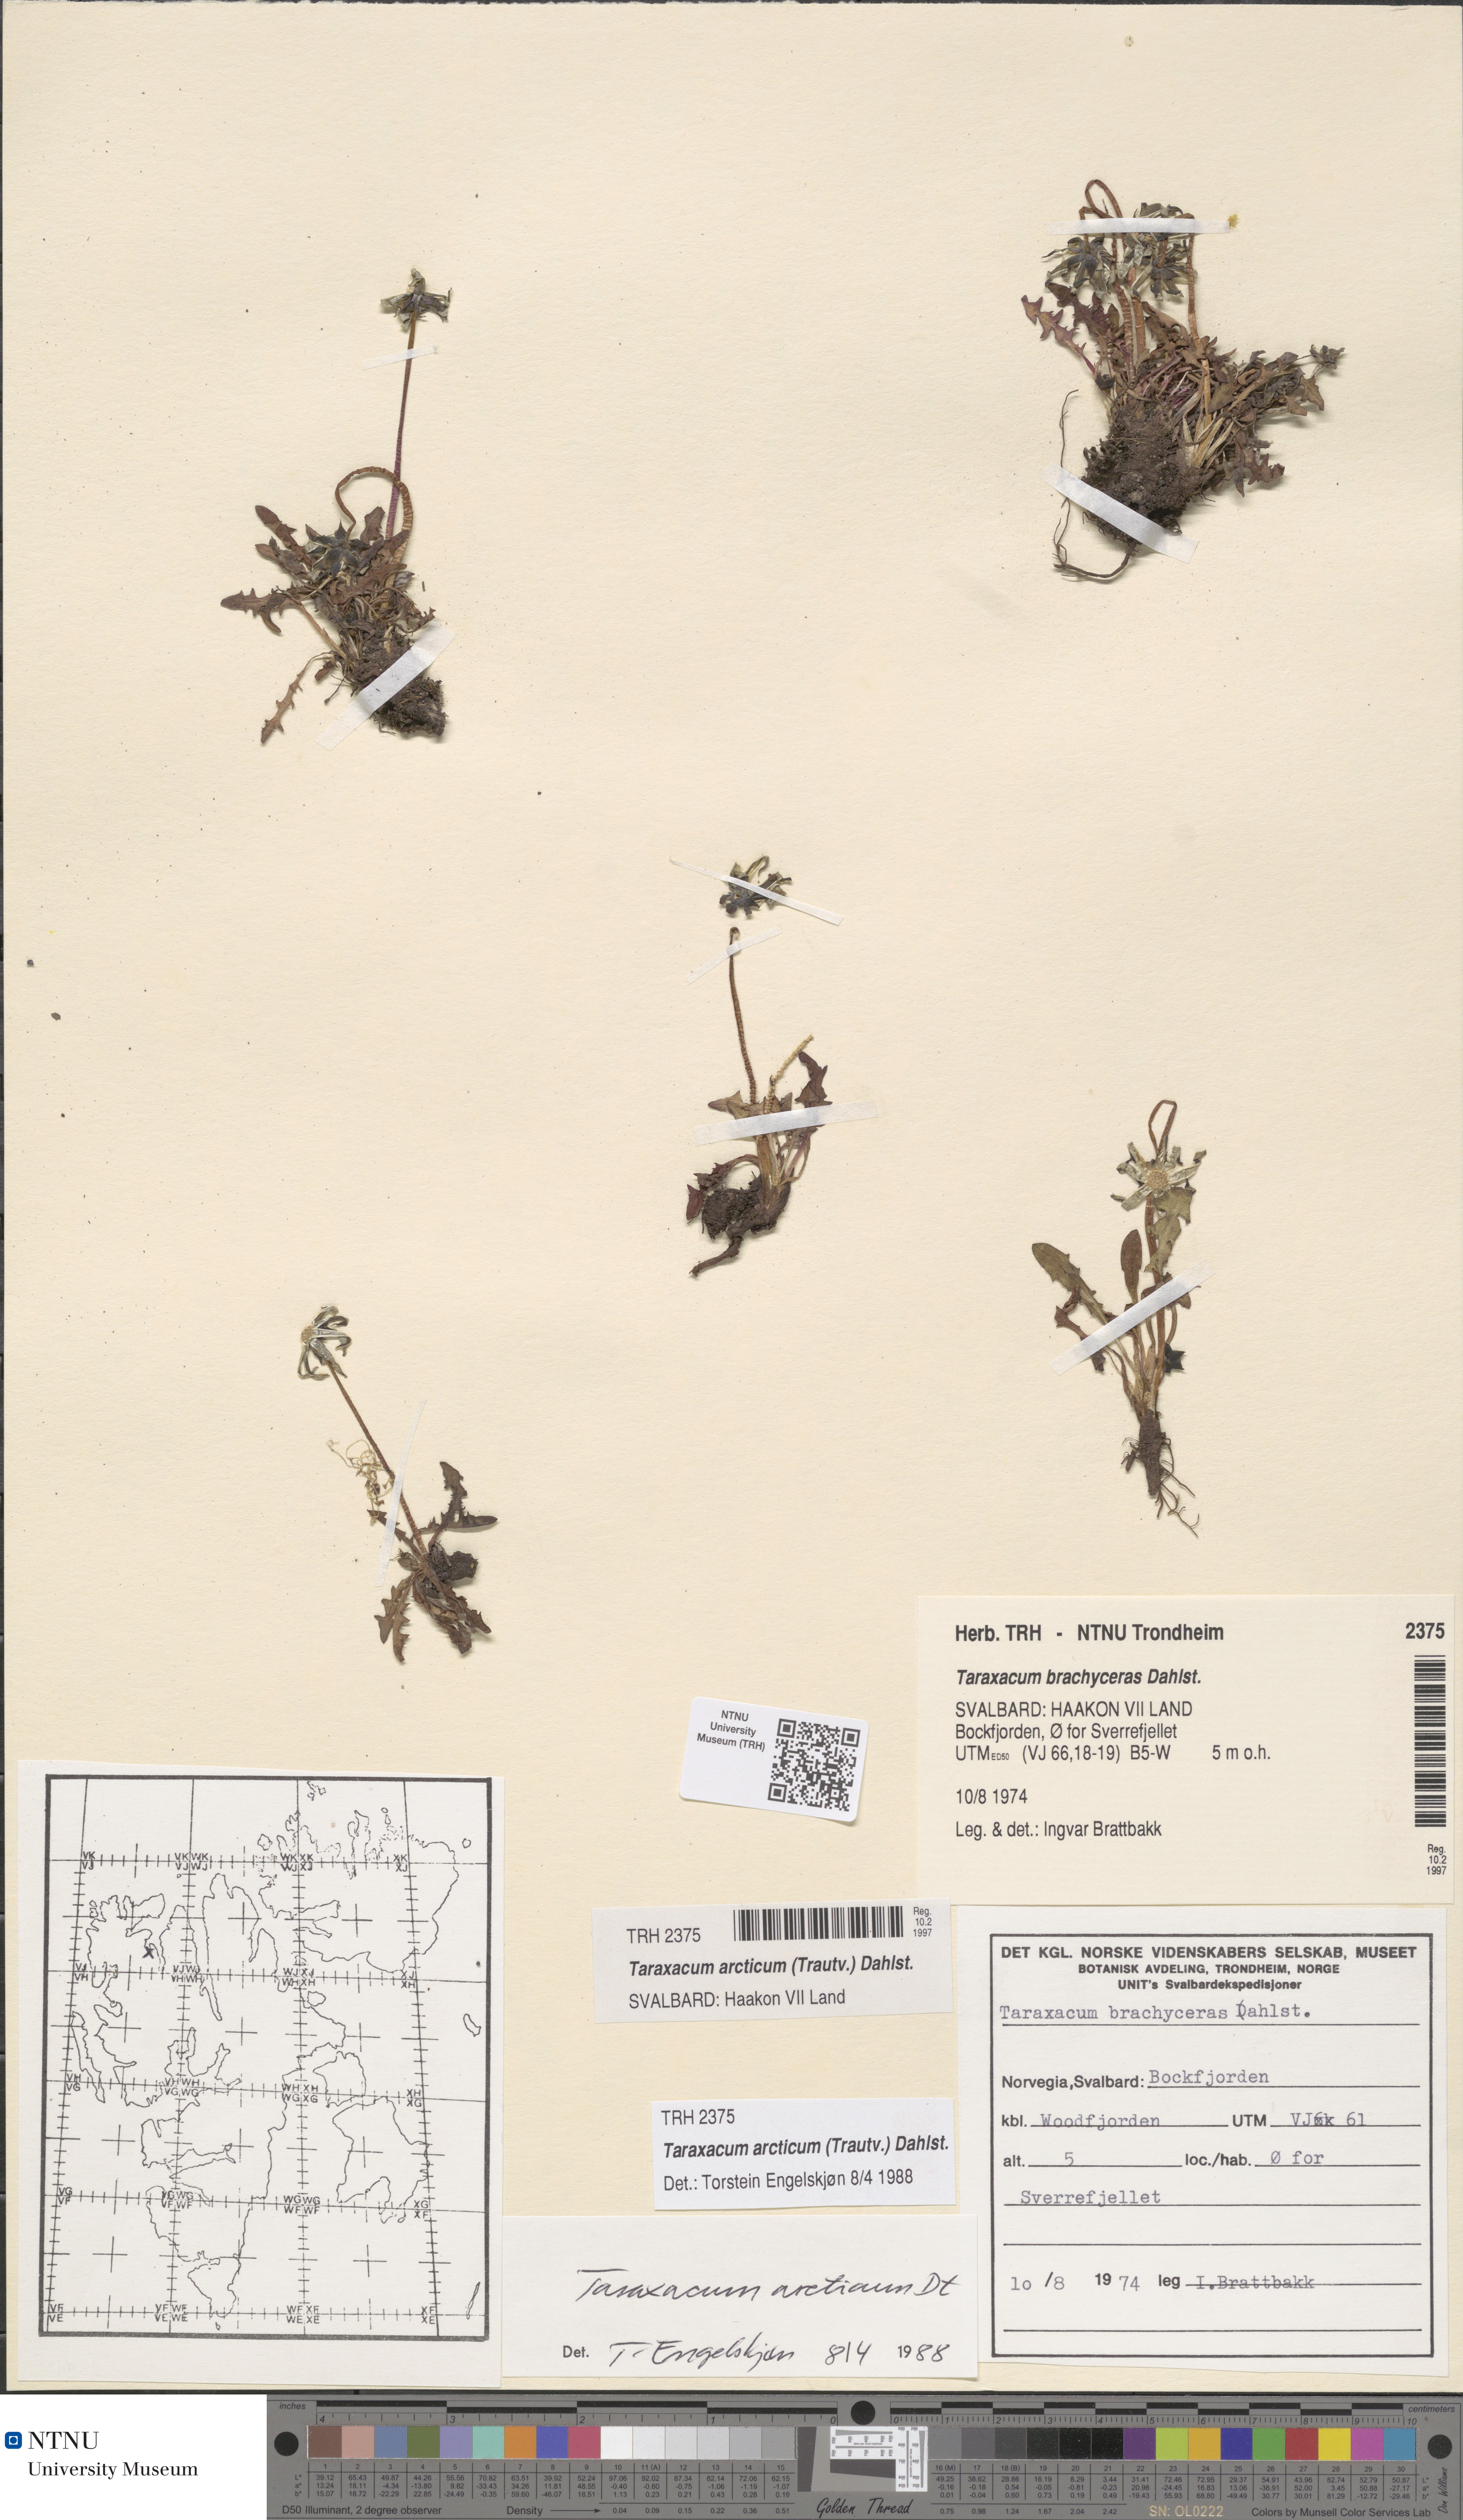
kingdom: Plantae
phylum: Tracheophyta
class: Magnoliopsida
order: Asterales
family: Asteraceae
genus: Taraxacum
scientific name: Taraxacum arcticum
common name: Arctic dandelion
